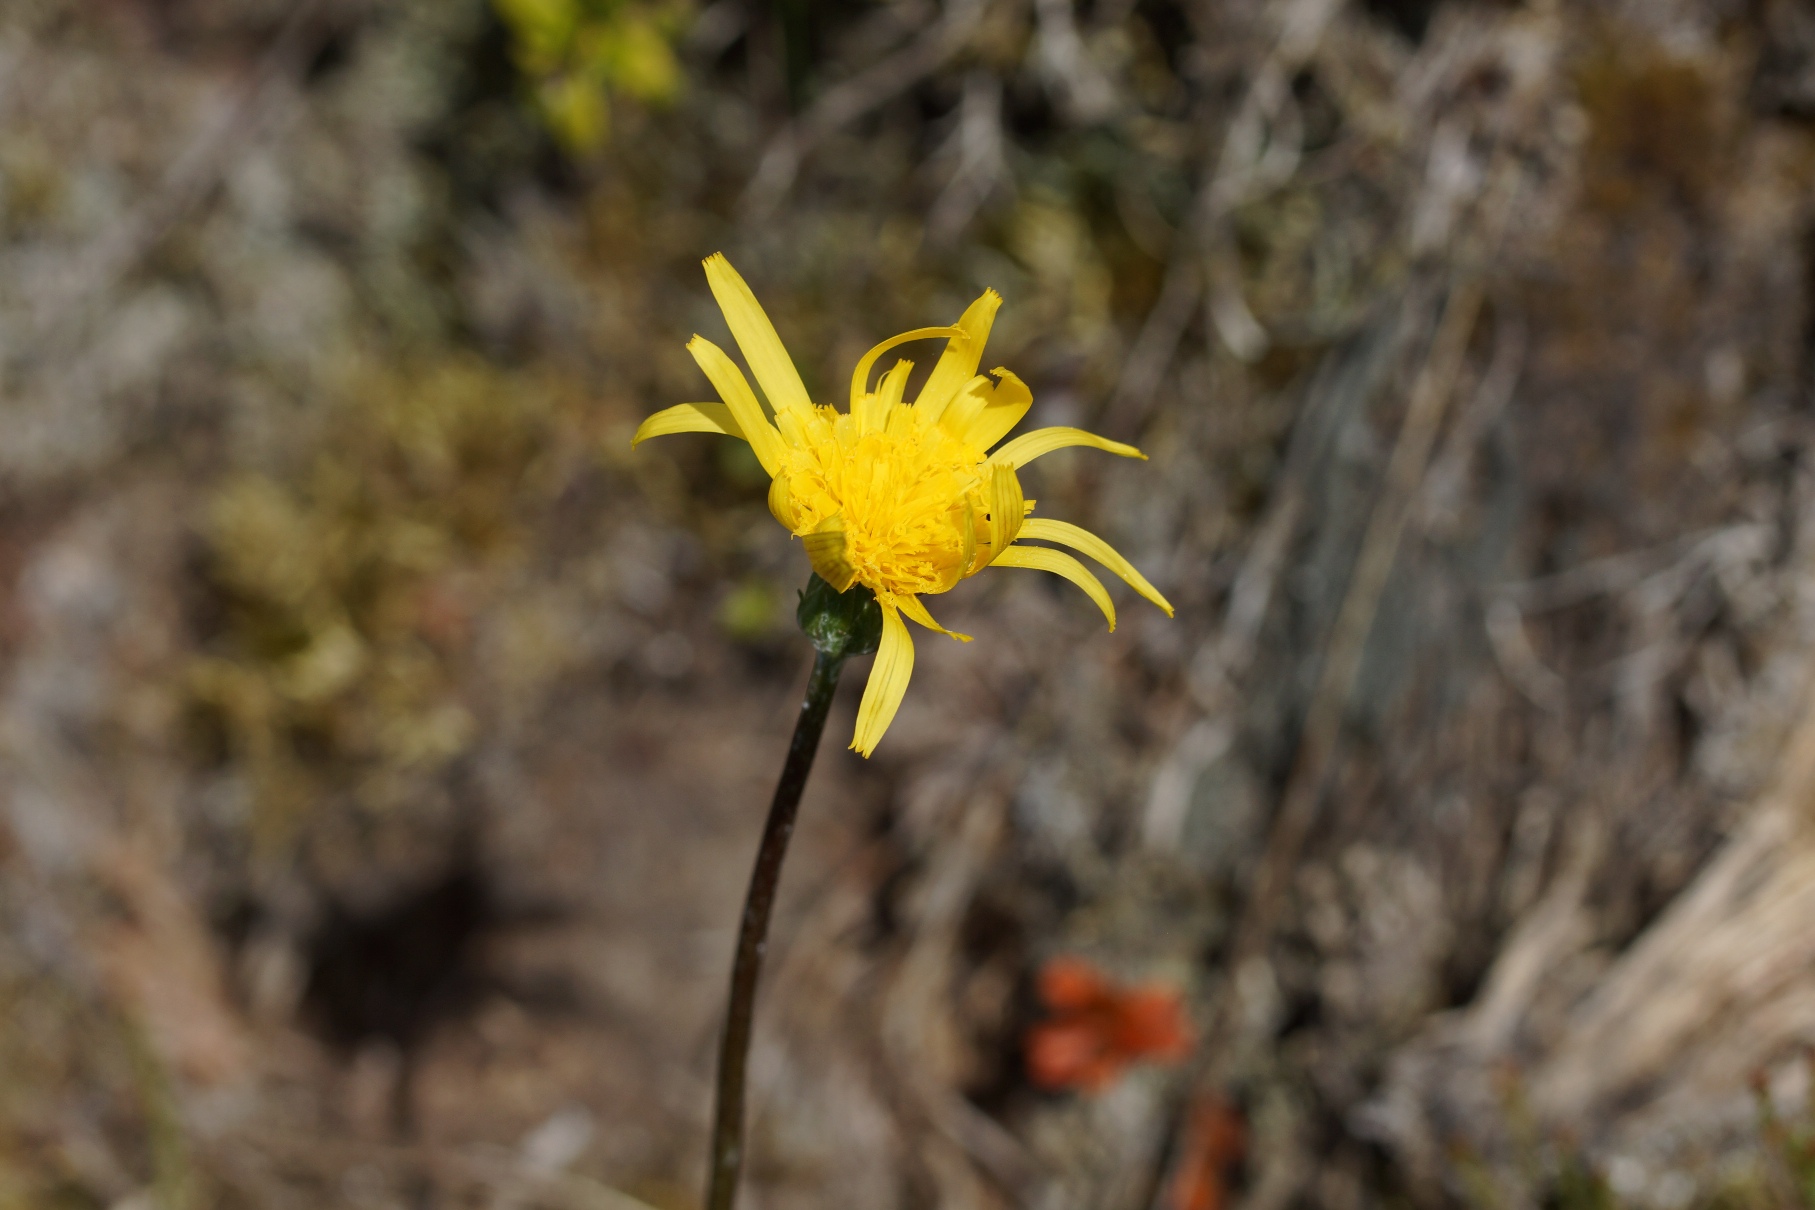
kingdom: Plantae
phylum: Tracheophyta
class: Magnoliopsida
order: Asterales
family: Asteraceae
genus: Scorzonera
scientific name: Scorzonera humilis
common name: Lav skorsoner
